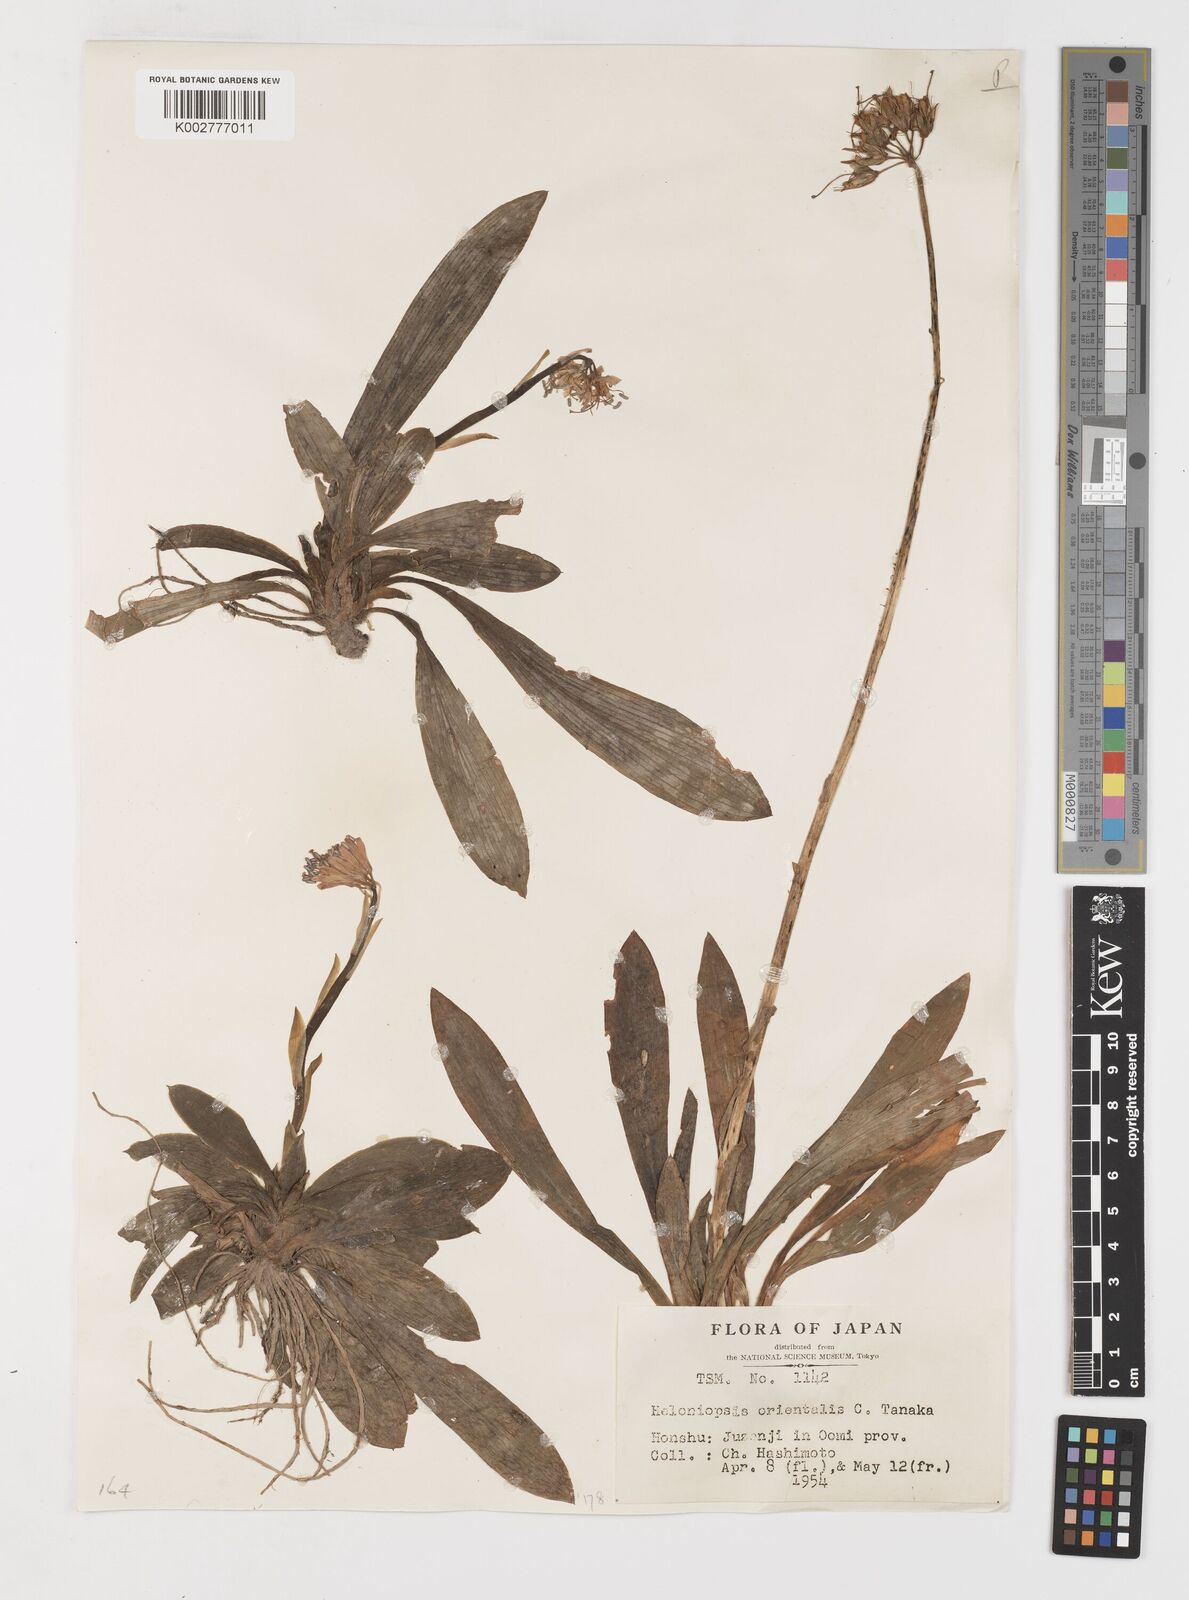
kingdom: Plantae
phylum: Tracheophyta
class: Liliopsida
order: Liliales
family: Melanthiaceae
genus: Helonias
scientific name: Helonias orientalis
